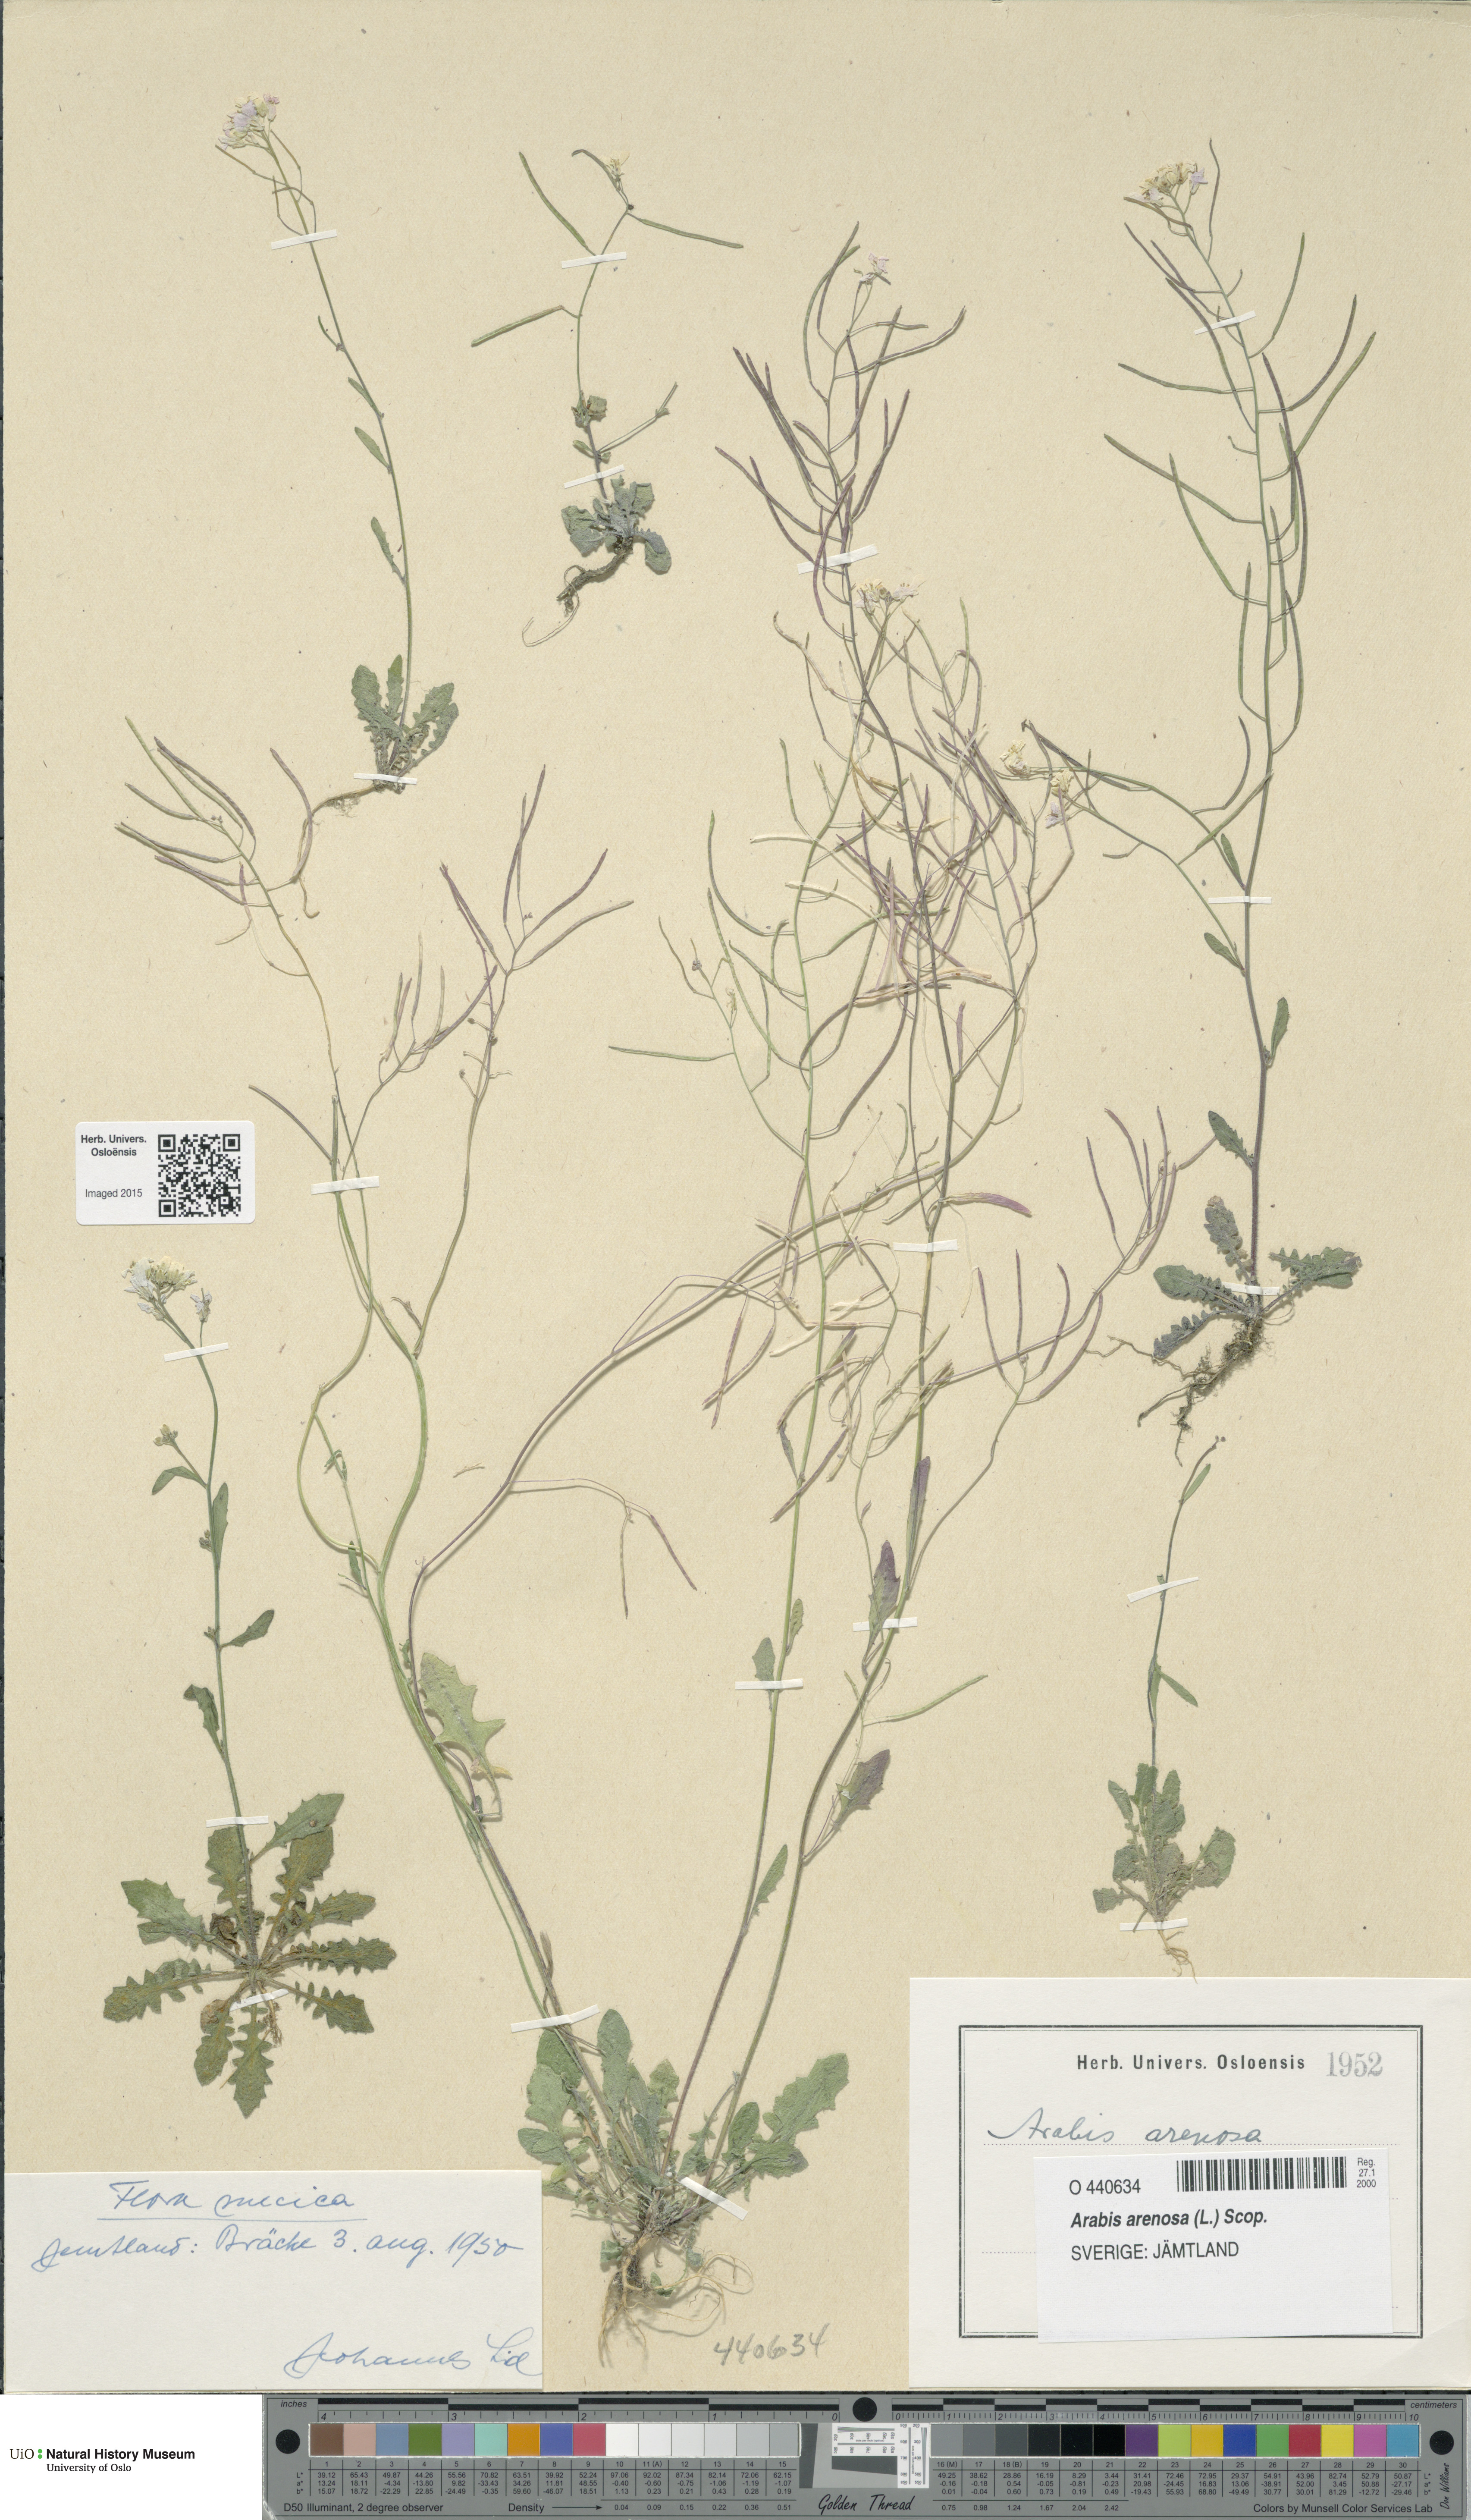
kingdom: Plantae
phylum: Tracheophyta
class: Magnoliopsida
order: Brassicales
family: Brassicaceae
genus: Arabidopsis
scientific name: Arabidopsis arenosa
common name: Sand rock-cress
